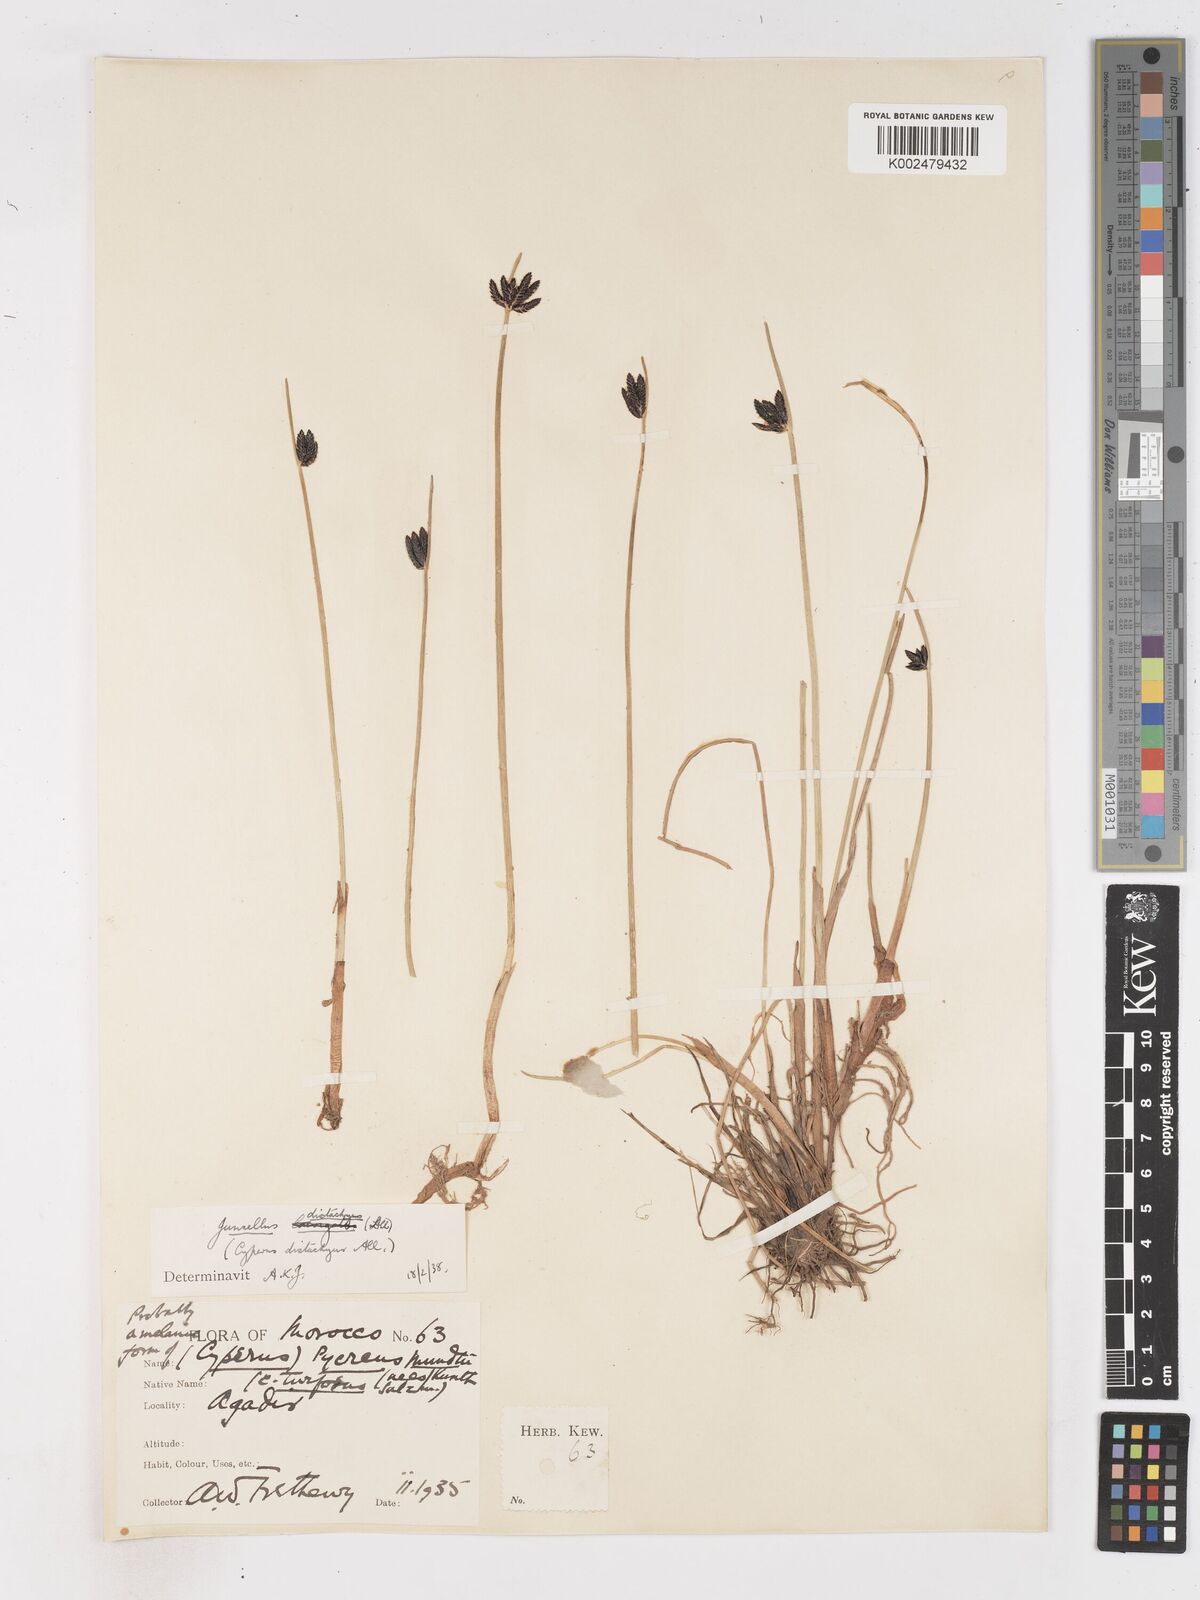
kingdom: Plantae
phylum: Tracheophyta
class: Liliopsida
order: Poales
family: Cyperaceae
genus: Cyperus
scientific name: Cyperus laevigatus
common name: Smooth flat sedge
